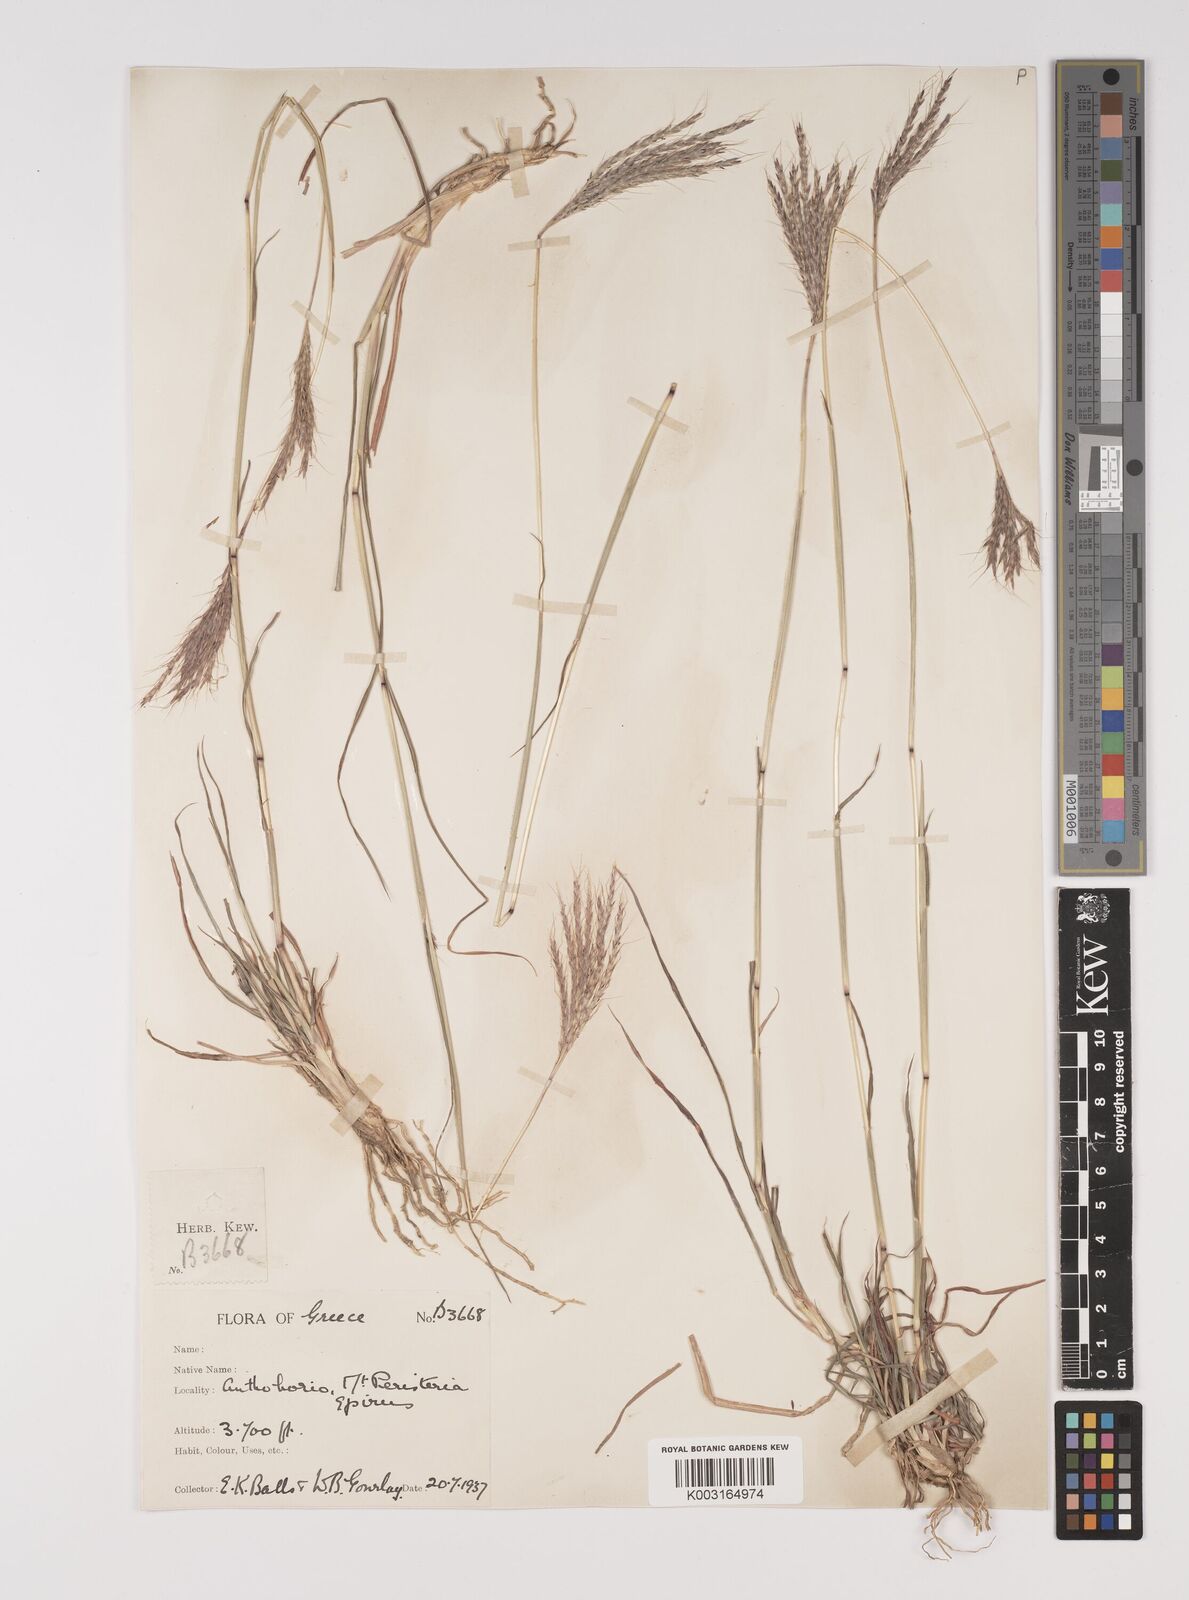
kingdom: Plantae
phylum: Tracheophyta
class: Liliopsida
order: Poales
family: Poaceae
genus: Bothriochloa
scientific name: Bothriochloa ischaemum
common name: Yellow bluestem
